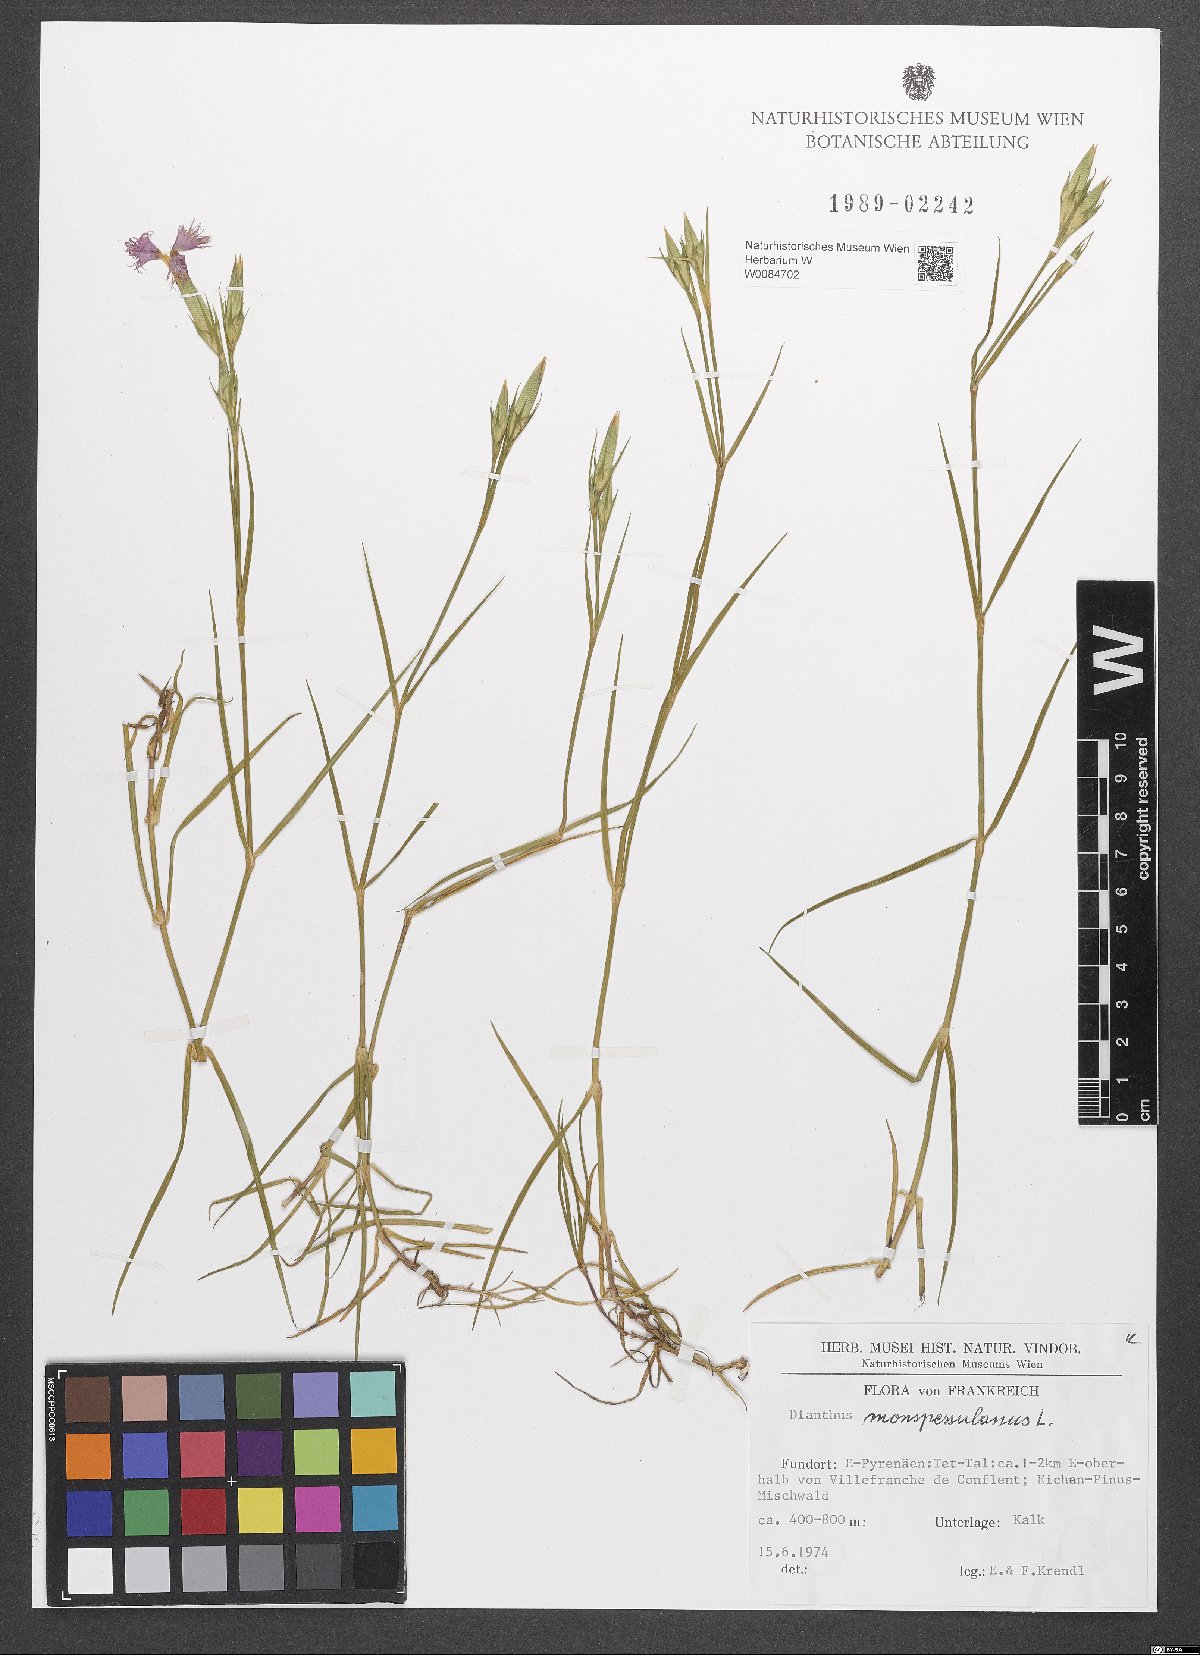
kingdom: Plantae
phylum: Tracheophyta
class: Magnoliopsida
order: Caryophyllales
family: Caryophyllaceae
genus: Dianthus
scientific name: Dianthus hyssopifolius
